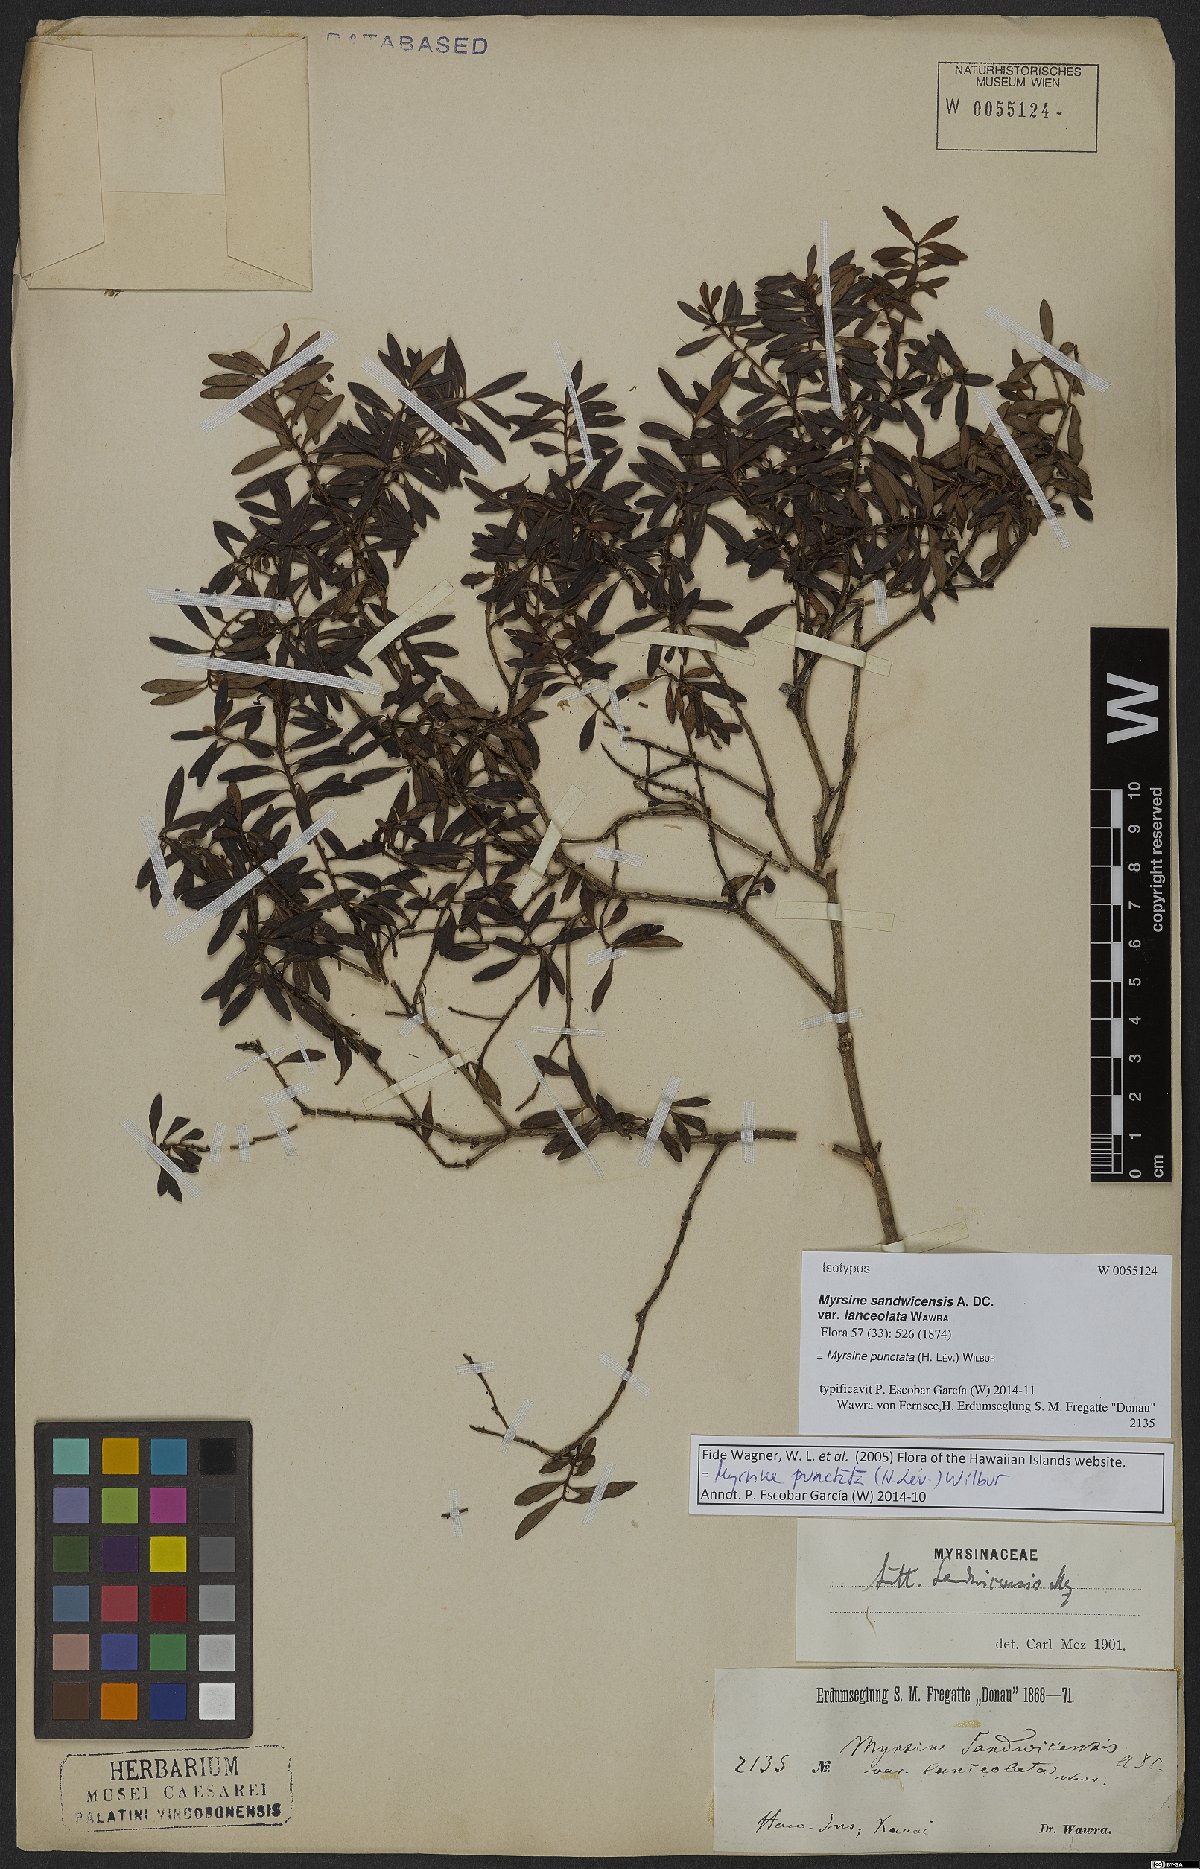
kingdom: Plantae
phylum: Tracheophyta
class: Magnoliopsida
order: Ericales
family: Primulaceae
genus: Myrsine
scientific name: Myrsine punctata
